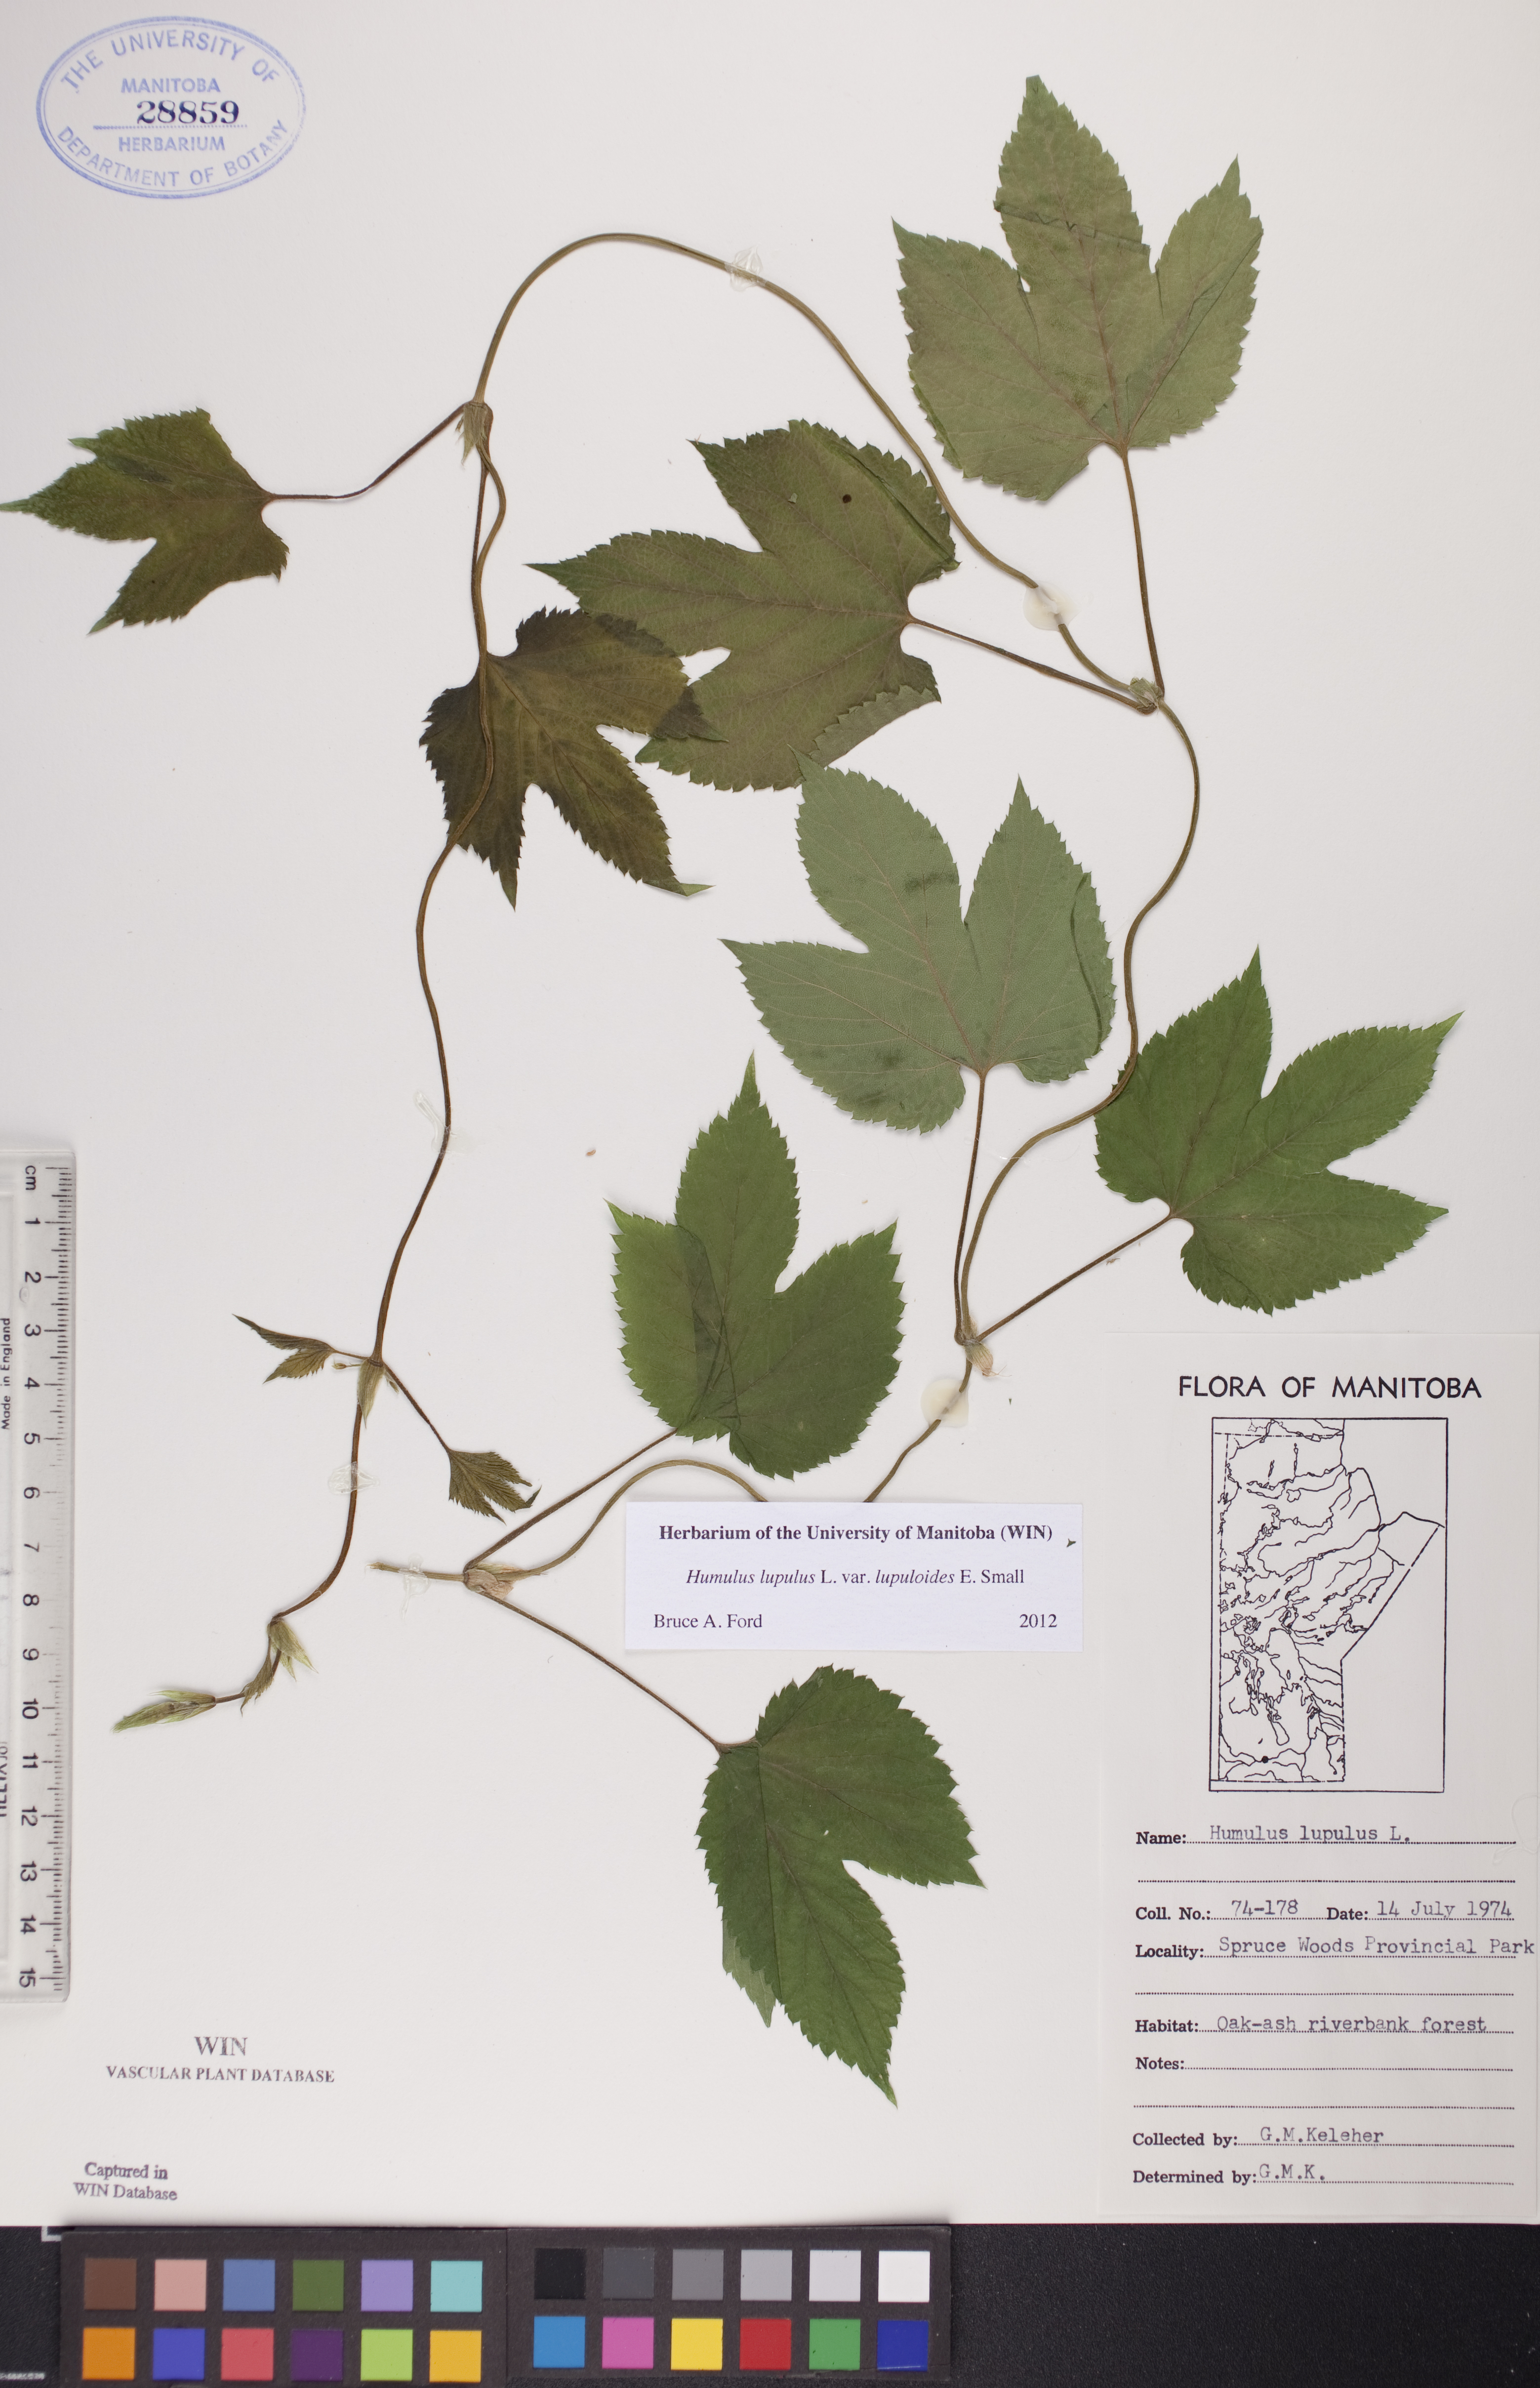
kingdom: Plantae
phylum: Tracheophyta
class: Magnoliopsida
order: Rosales
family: Cannabaceae
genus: Humulus
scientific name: Humulus americanus
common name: American hops
